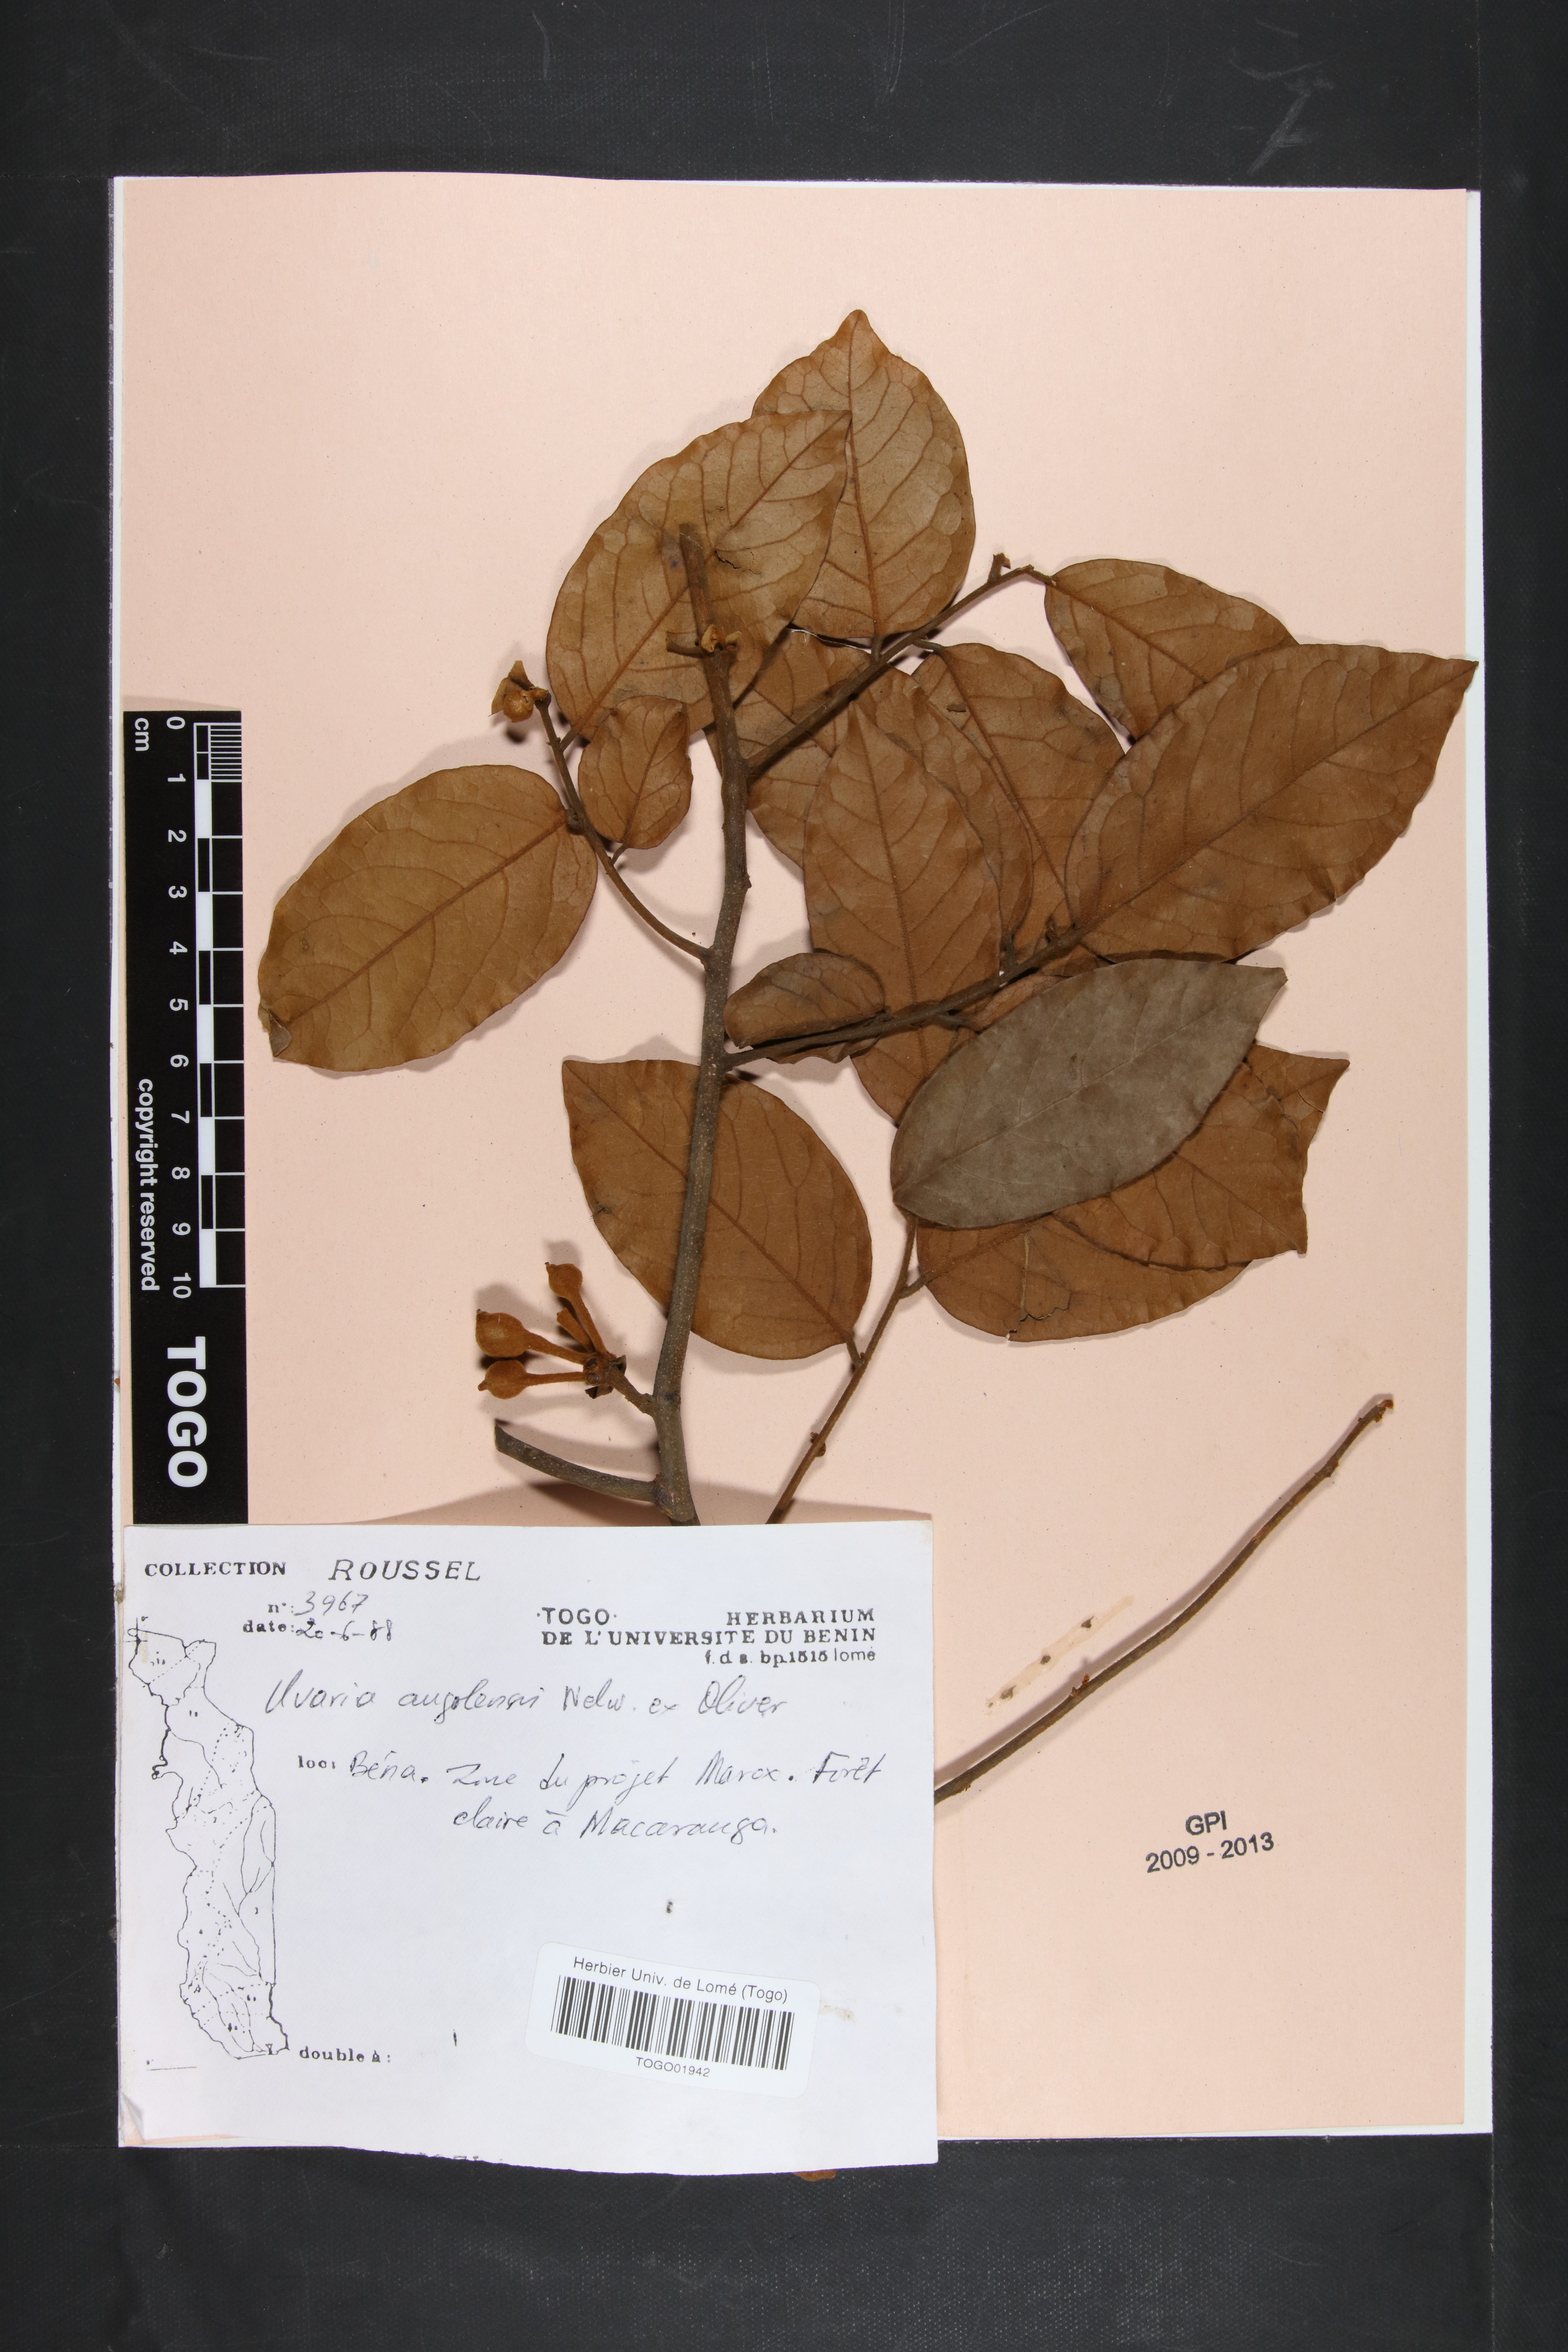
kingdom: Plantae
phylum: Tracheophyta
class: Magnoliopsida
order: Magnoliales
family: Annonaceae
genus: Uvaria
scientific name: Uvaria angolensis
